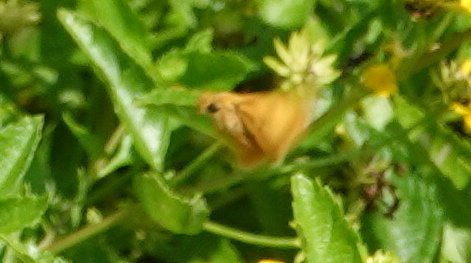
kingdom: Animalia
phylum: Arthropoda
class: Insecta
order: Lepidoptera
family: Hesperiidae
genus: Atalopedes
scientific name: Atalopedes campestris
